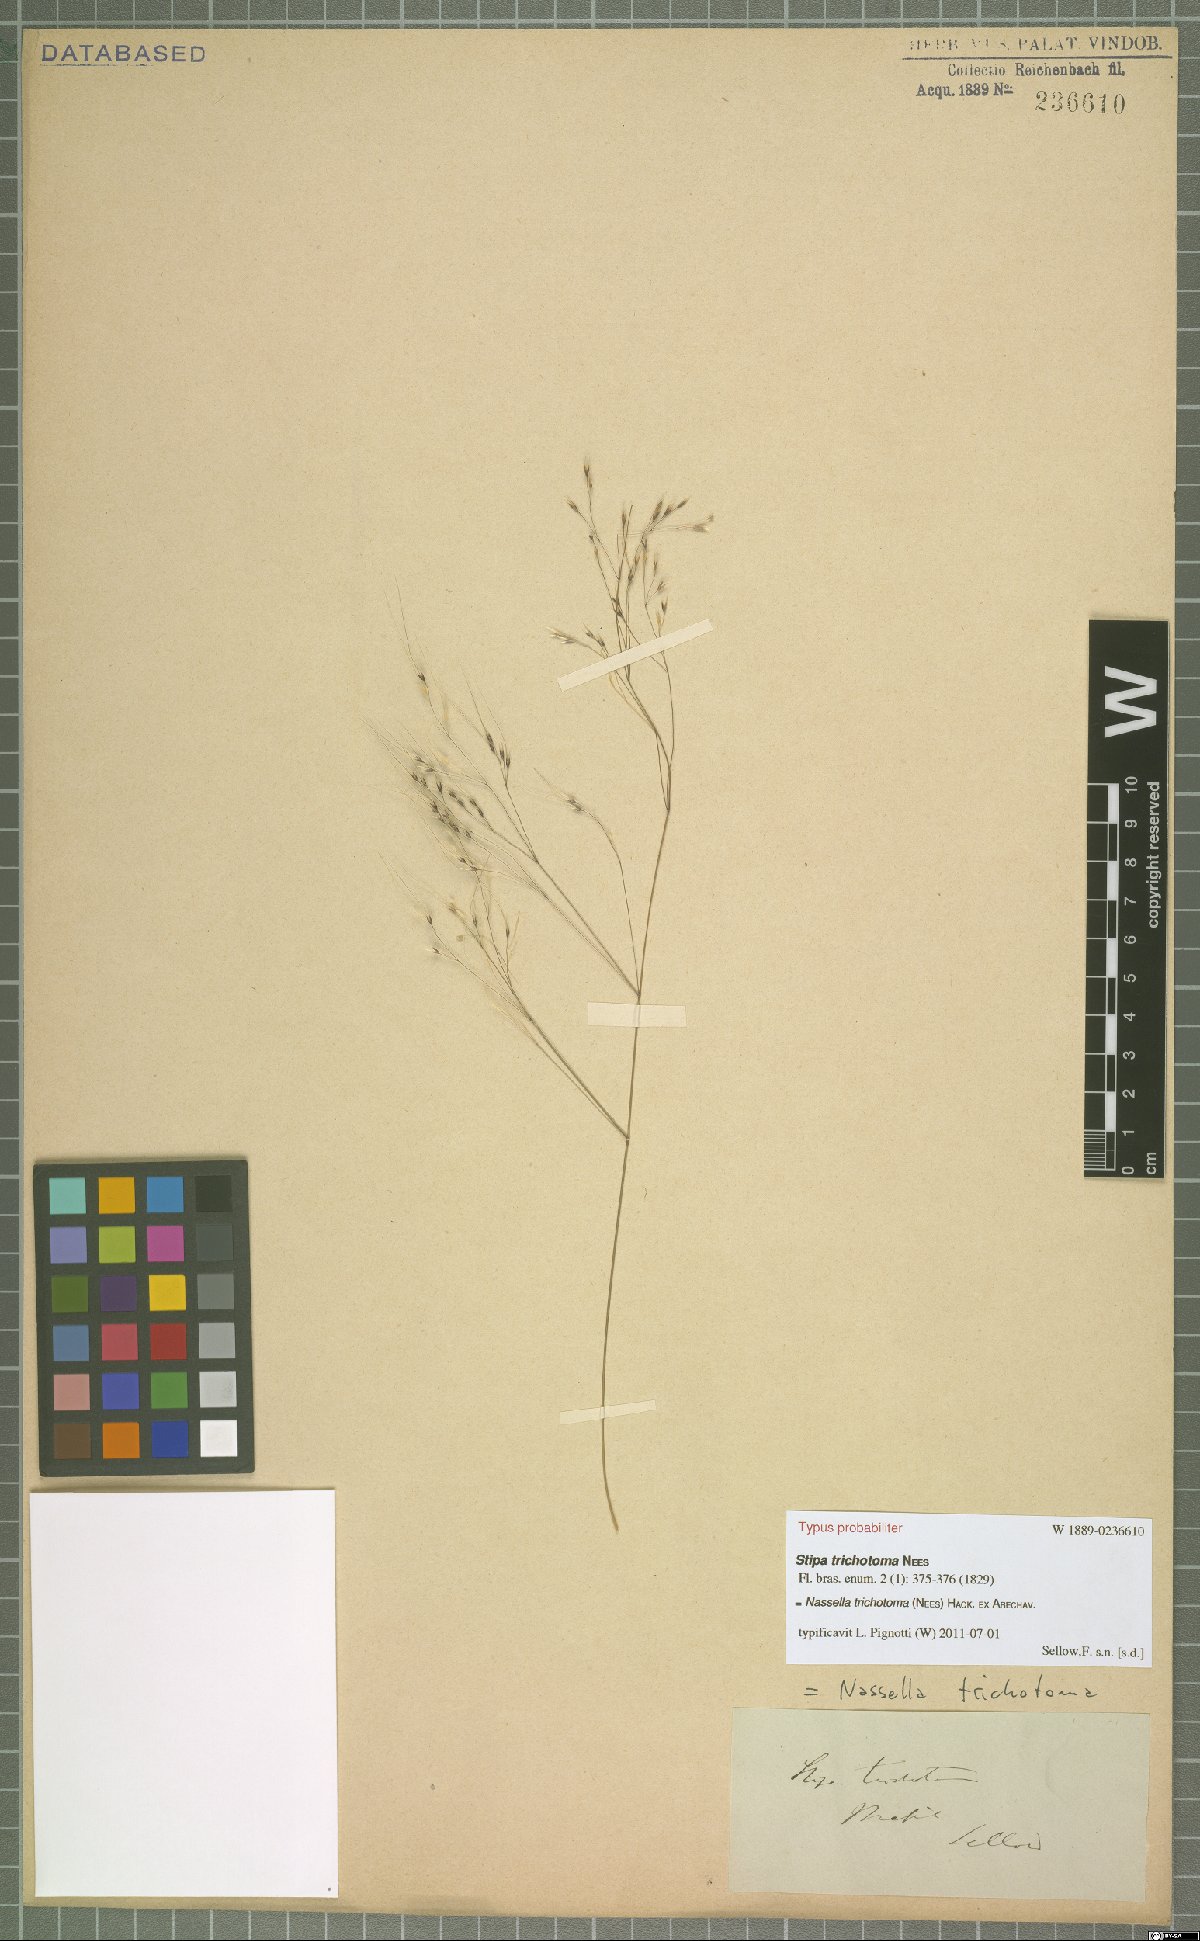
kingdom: Plantae
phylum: Tracheophyta
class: Liliopsida
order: Poales
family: Poaceae
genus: Nassella
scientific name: Nassella trichotoma
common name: Serrated tussock grass
